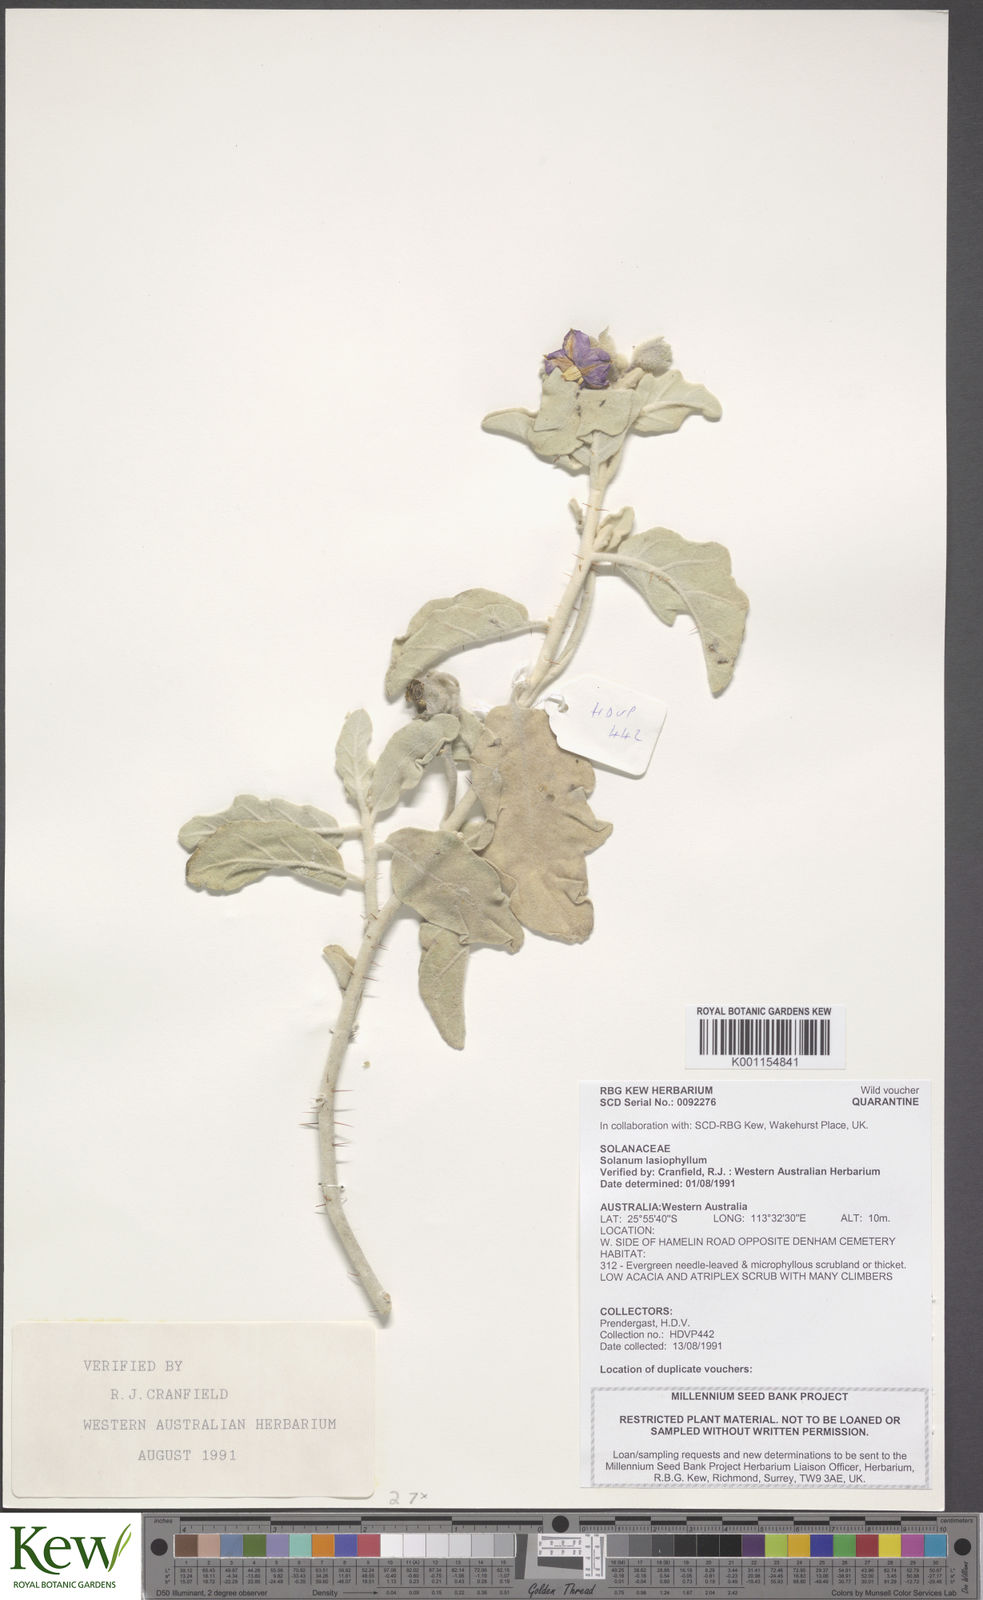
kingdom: Plantae
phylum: Tracheophyta
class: Magnoliopsida
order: Solanales
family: Solanaceae
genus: Solanum
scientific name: Solanum lasiophyllum
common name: Flannelbush
